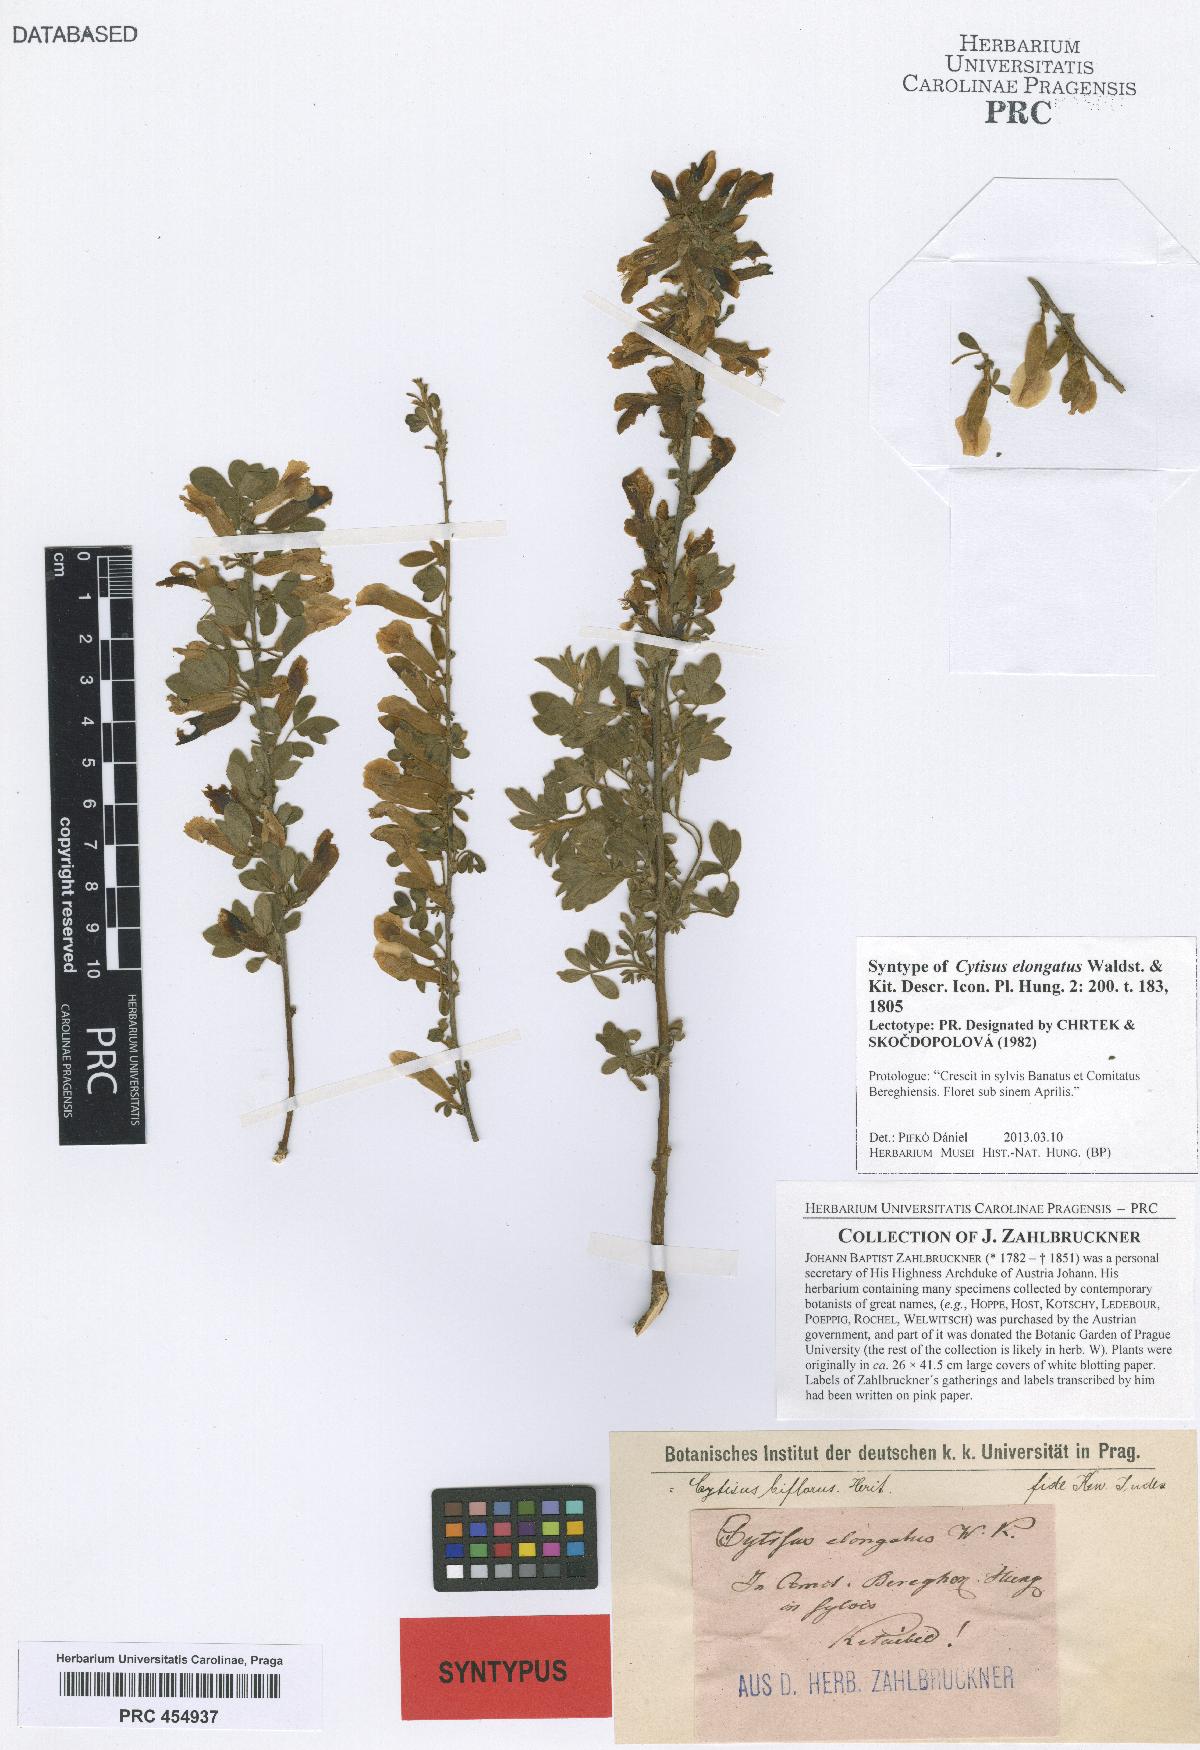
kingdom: Plantae
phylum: Tracheophyta
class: Magnoliopsida
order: Fabales
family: Fabaceae
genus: Chamaecytisus
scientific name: Chamaecytisus elongatus
